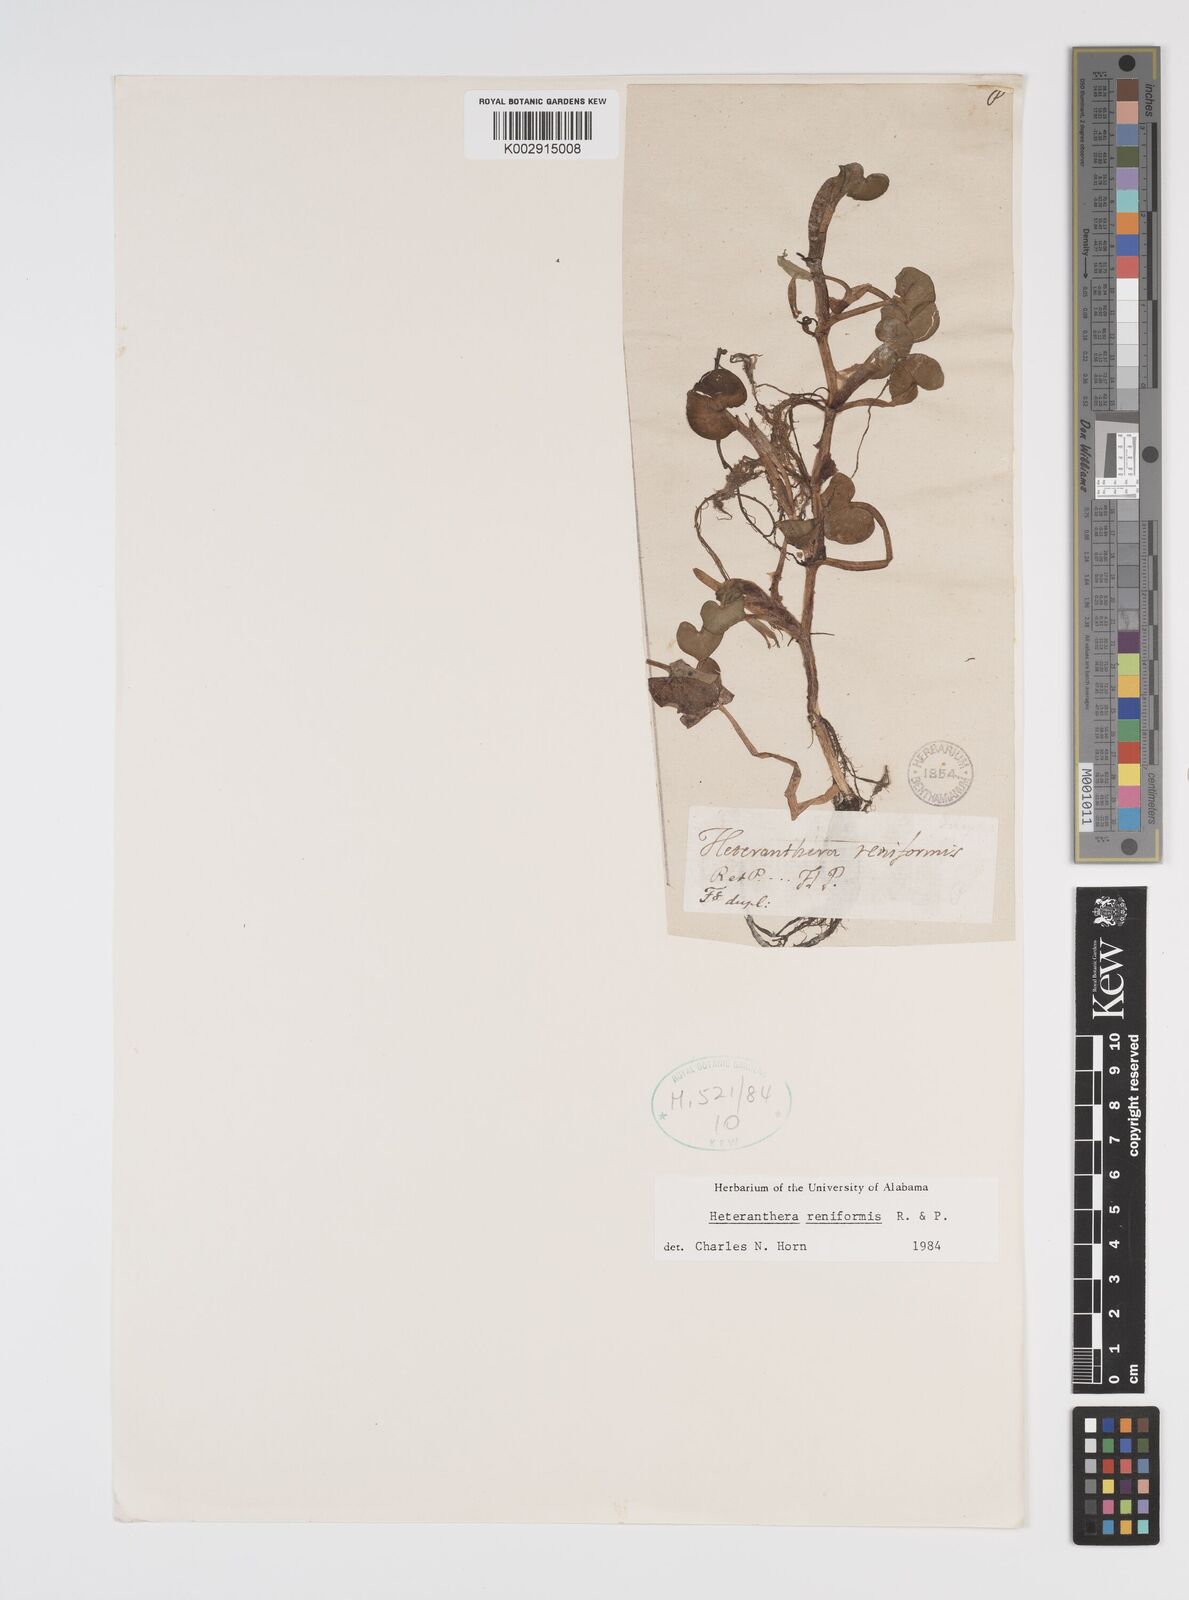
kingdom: Plantae
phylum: Tracheophyta
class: Liliopsida
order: Commelinales
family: Pontederiaceae
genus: Heteranthera
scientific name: Heteranthera reniformis
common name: Kidneyleaf mudplantain
